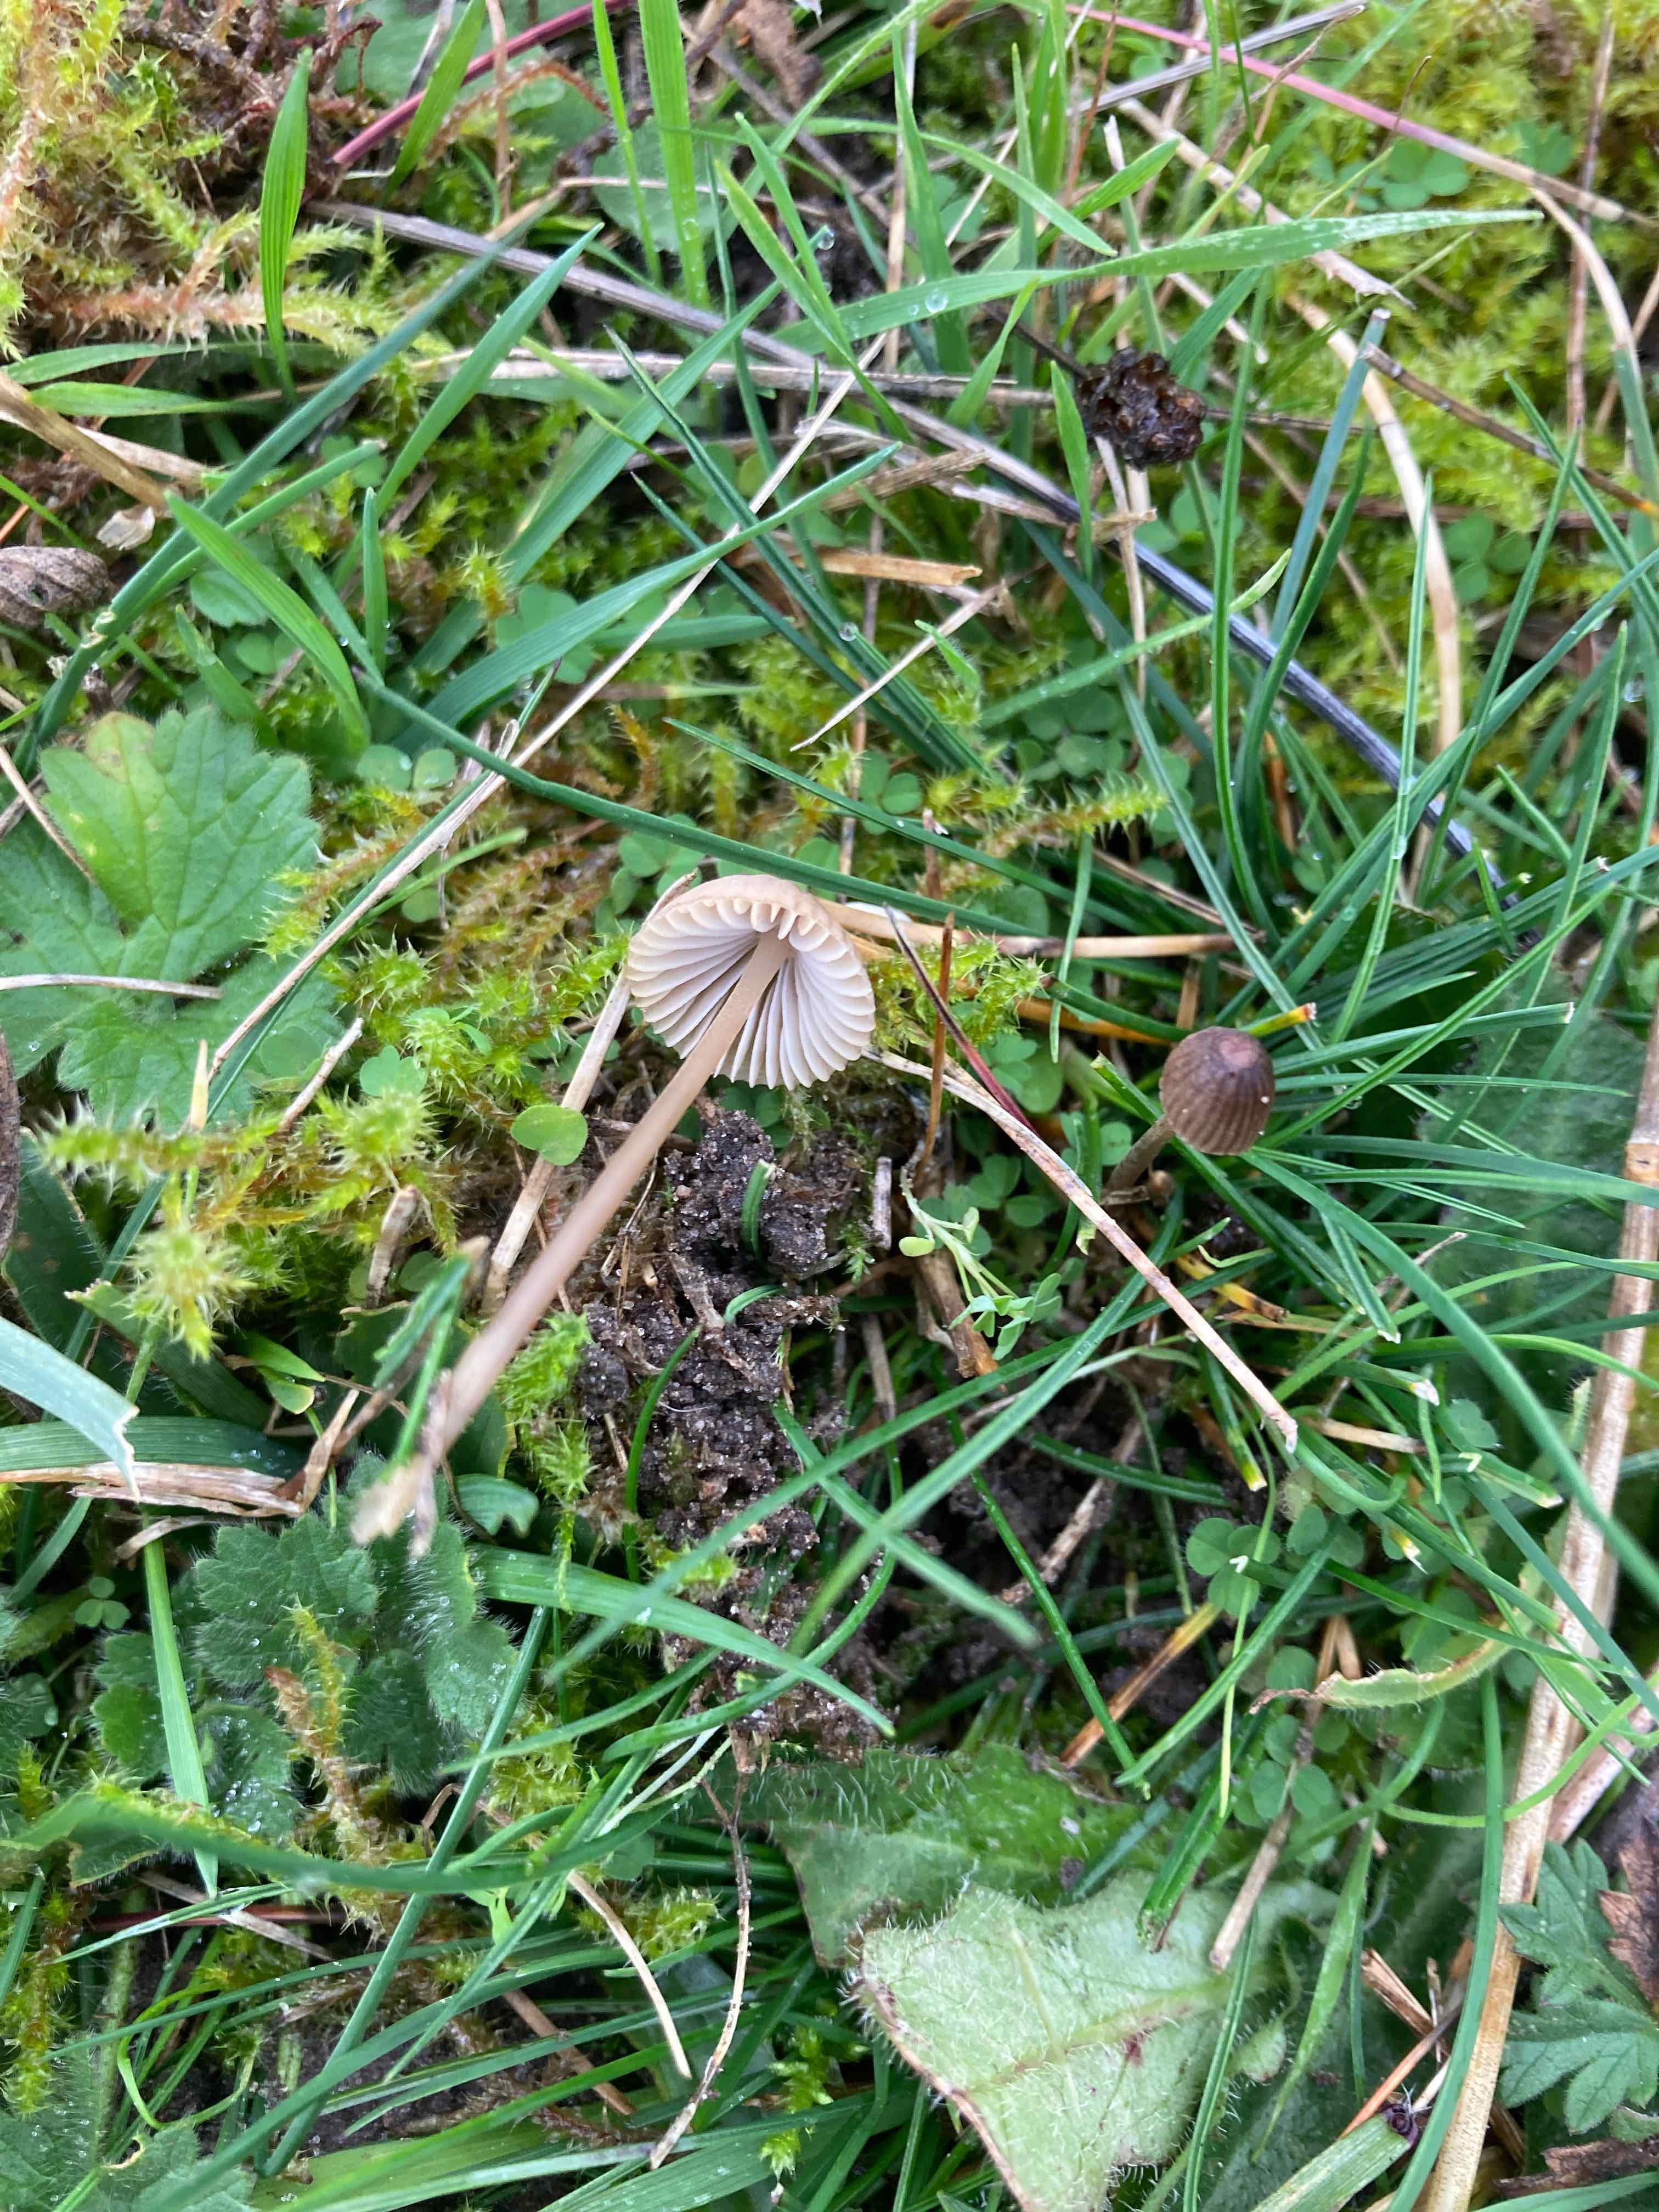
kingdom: Fungi
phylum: Basidiomycota
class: Agaricomycetes
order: Agaricales
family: Mycenaceae
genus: Mycena
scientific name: Mycena olivaceomarginata
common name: brunægget huesvamp
